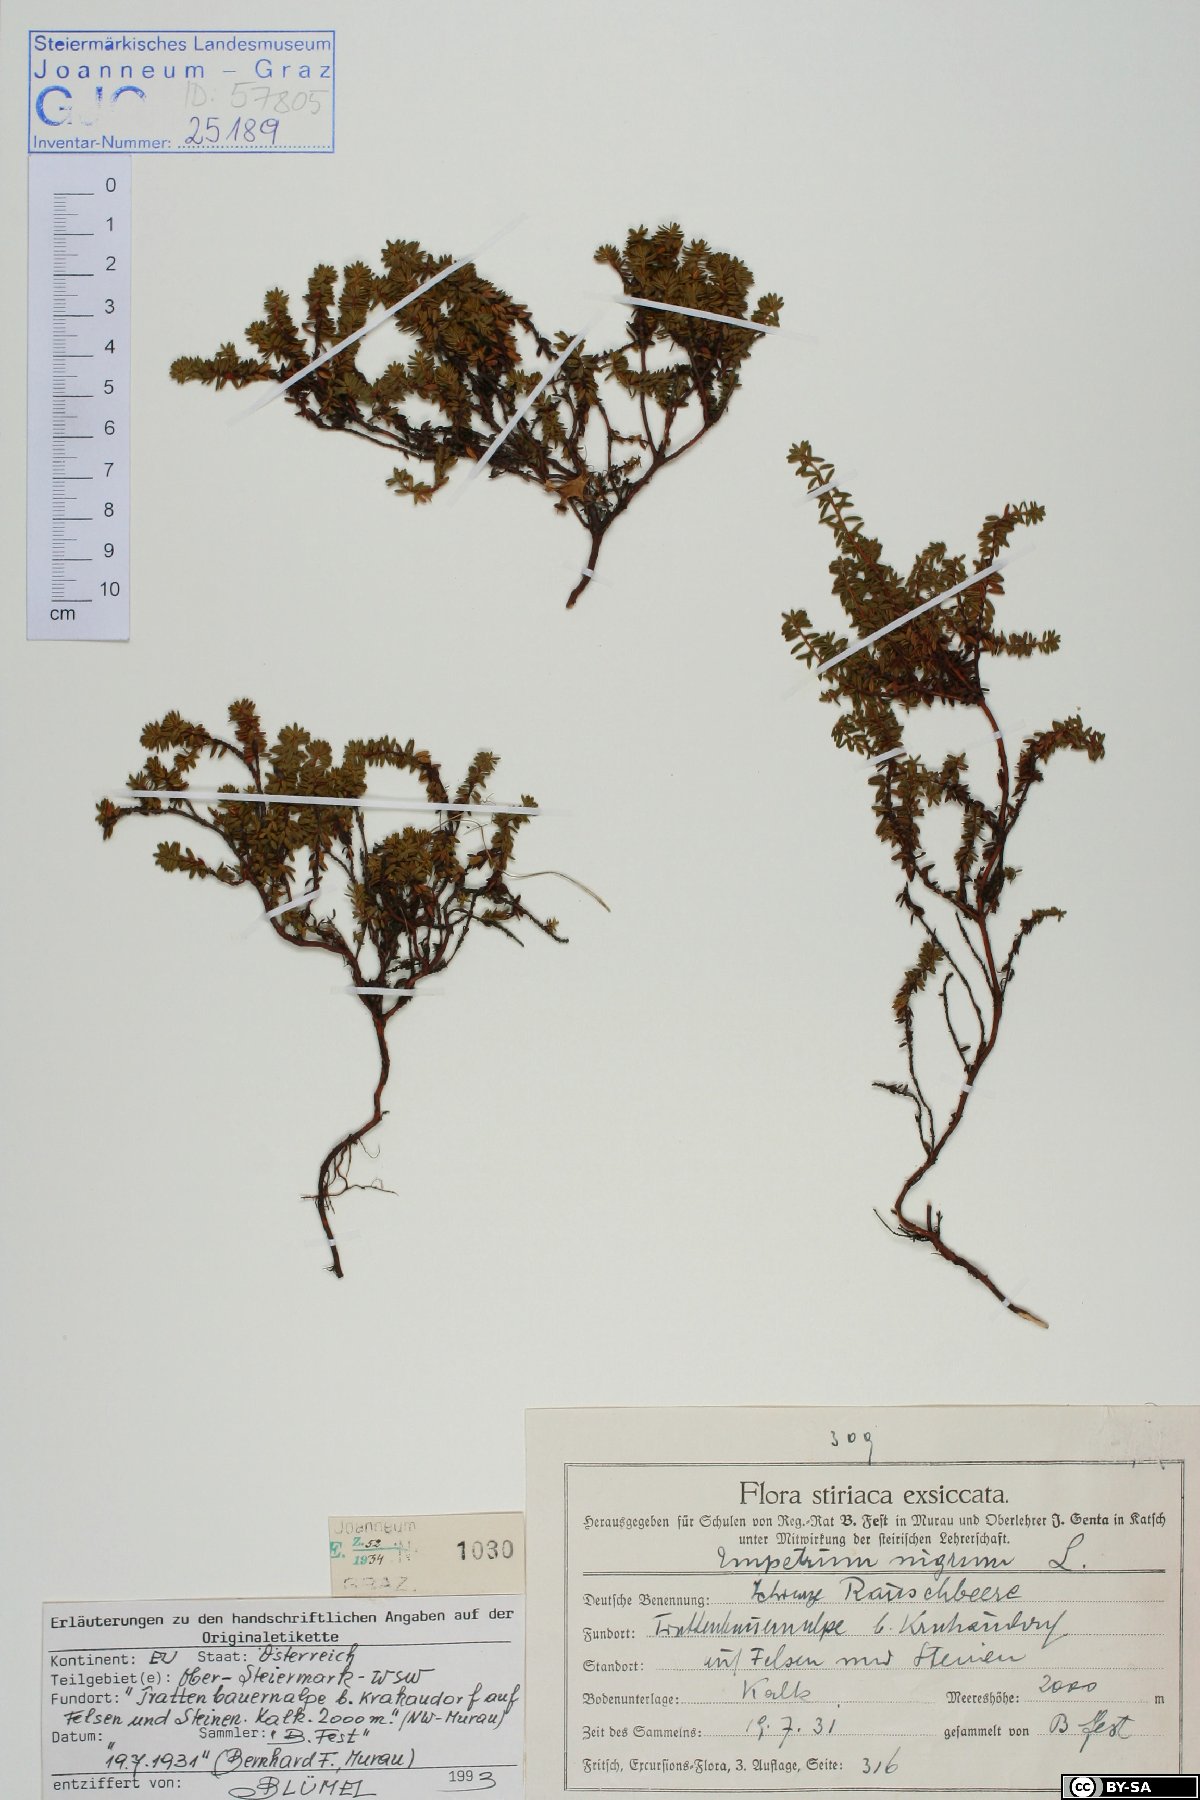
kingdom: Plantae
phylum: Tracheophyta
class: Magnoliopsida
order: Ericales
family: Ericaceae
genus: Empetrum
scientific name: Empetrum hermaphroditum
